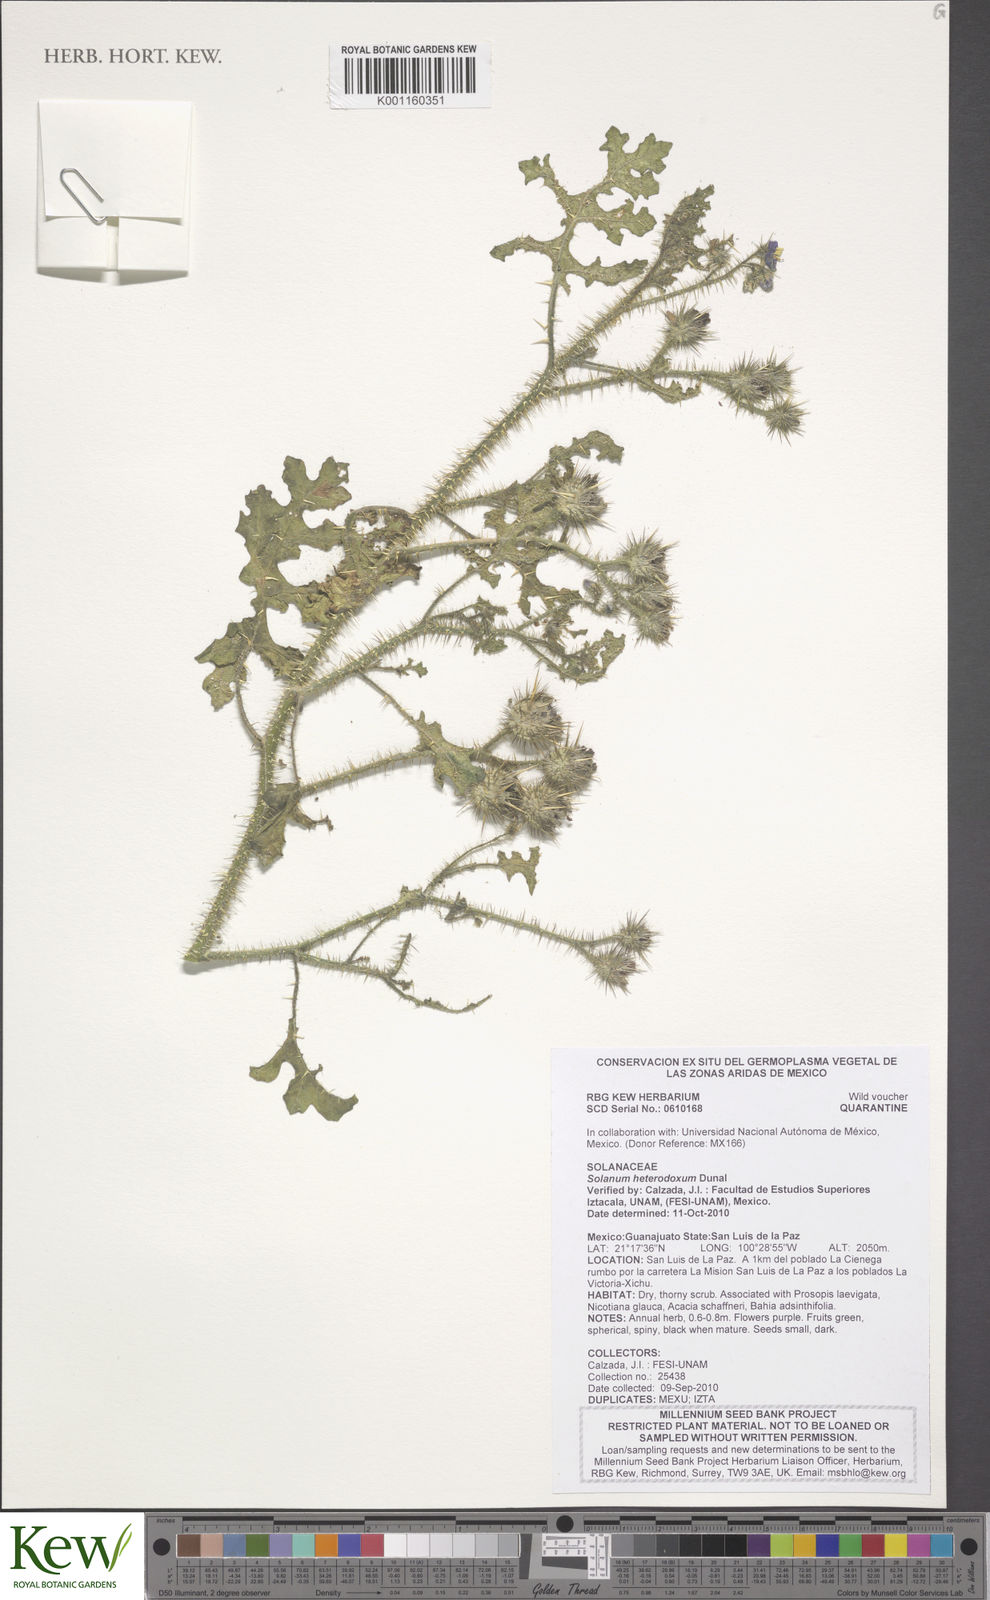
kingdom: Plantae
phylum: Tracheophyta
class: Magnoliopsida
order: Solanales
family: Solanaceae
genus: Solanum
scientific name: Solanum heterodoxum
